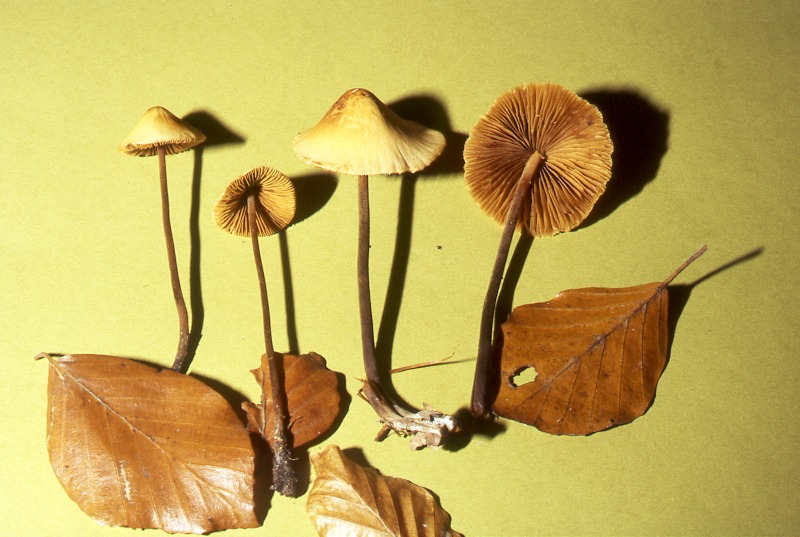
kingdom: Fungi
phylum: Basidiomycota
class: Agaricomycetes
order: Agaricales
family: Bolbitiaceae
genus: Conocybe
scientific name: Conocybe subovalis
